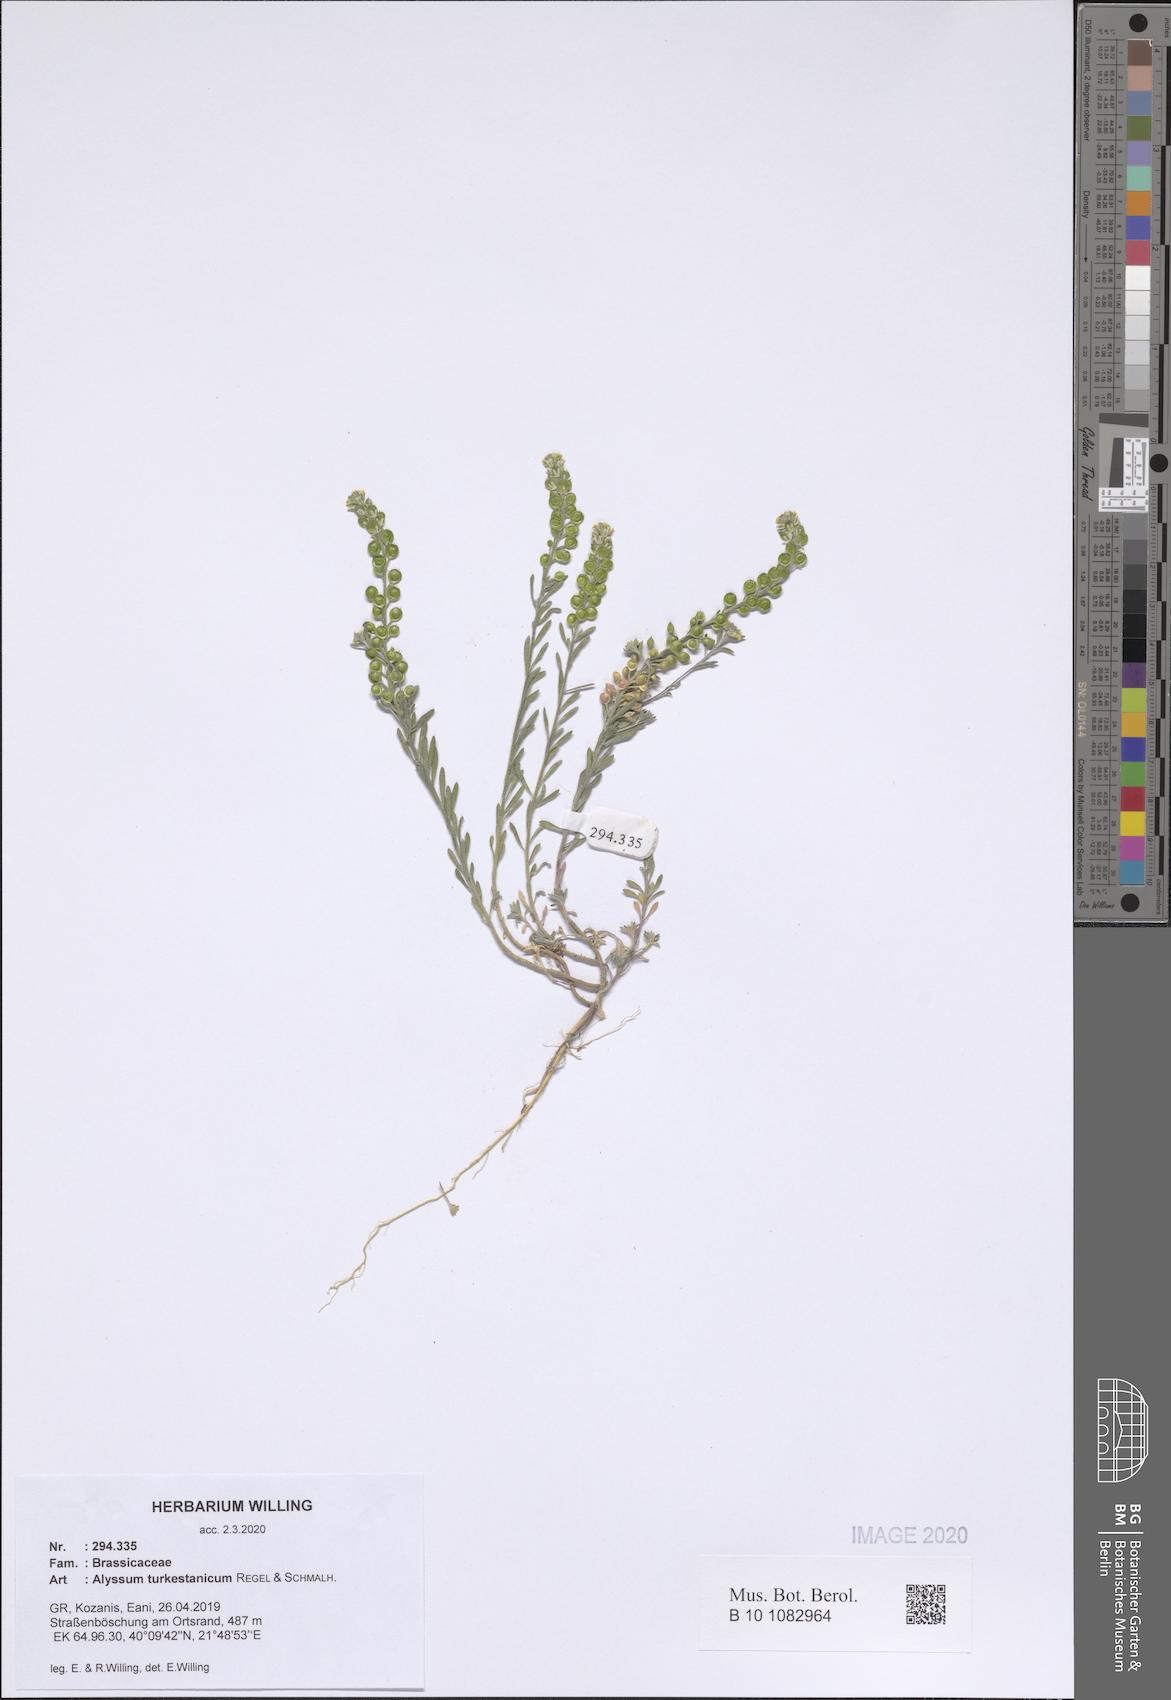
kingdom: Plantae
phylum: Tracheophyta
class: Magnoliopsida
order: Brassicales
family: Brassicaceae
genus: Alyssum
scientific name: Alyssum turkestanicum
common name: Desert alyssum
